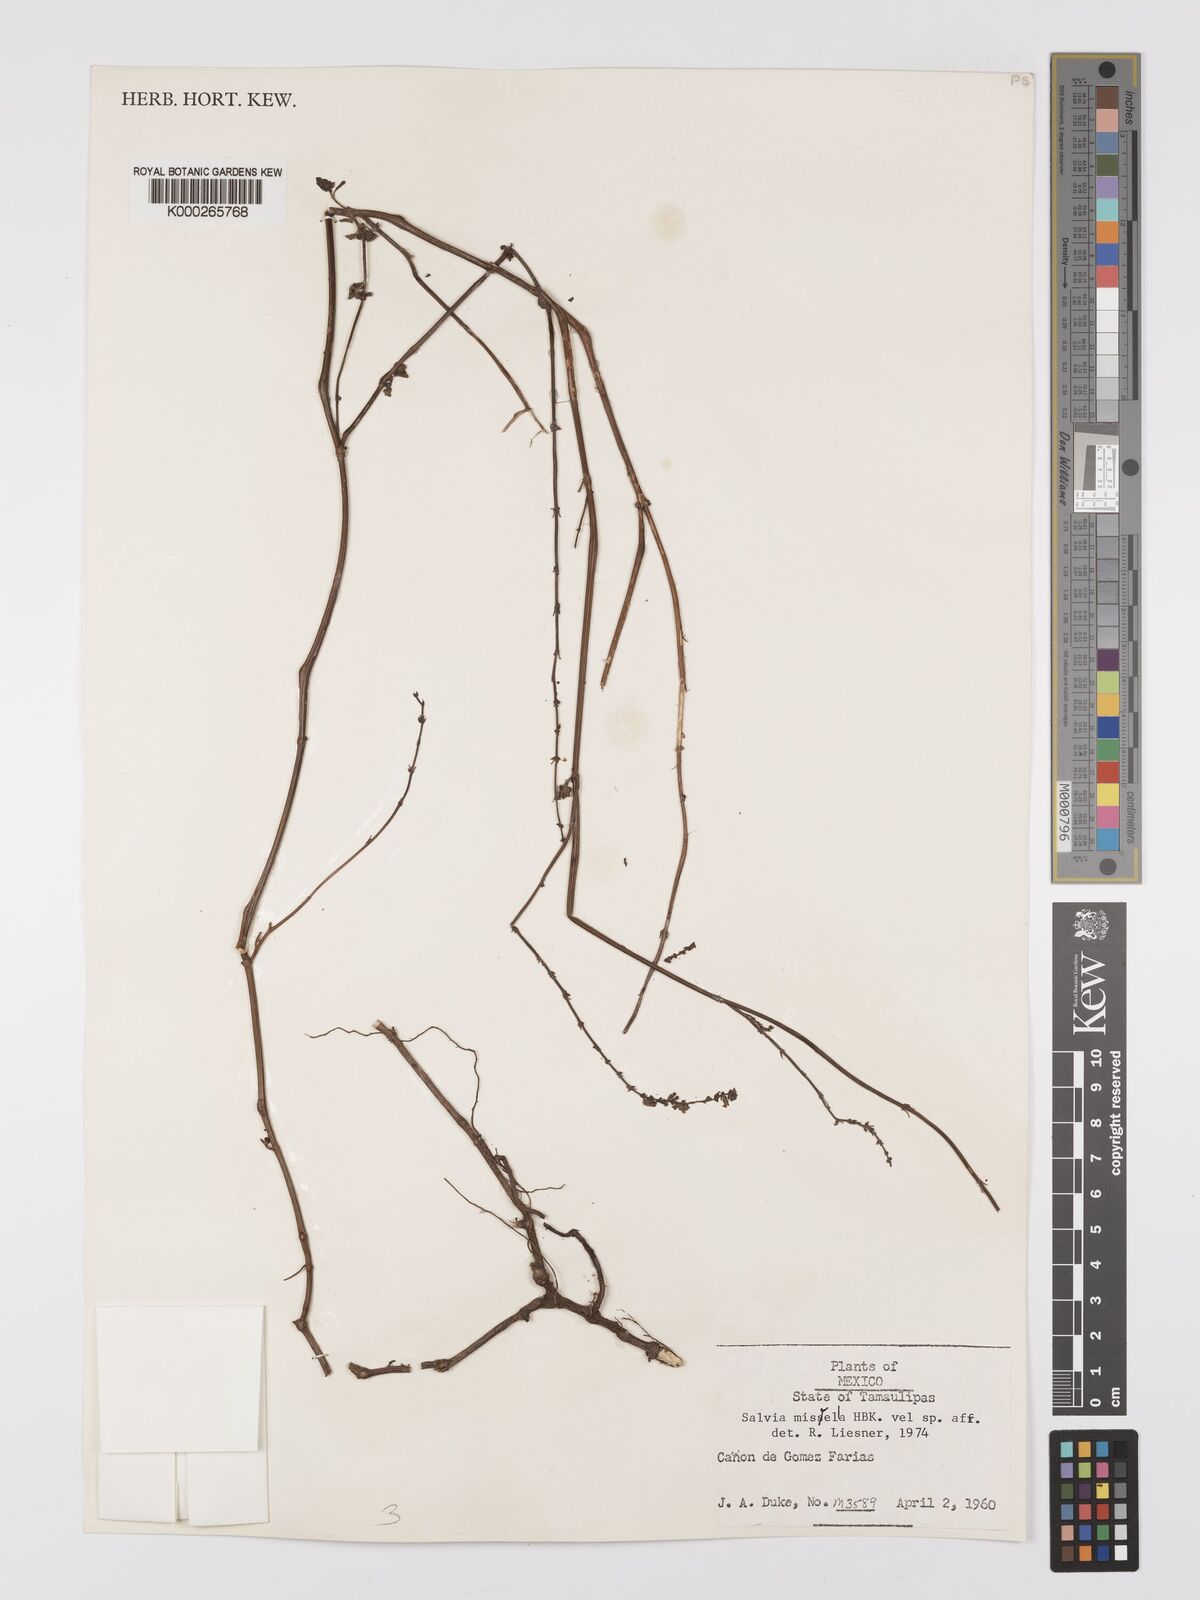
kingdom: Plantae
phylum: Tracheophyta
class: Magnoliopsida
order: Lamiales
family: Lamiaceae
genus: Salvia
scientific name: Salvia misella
